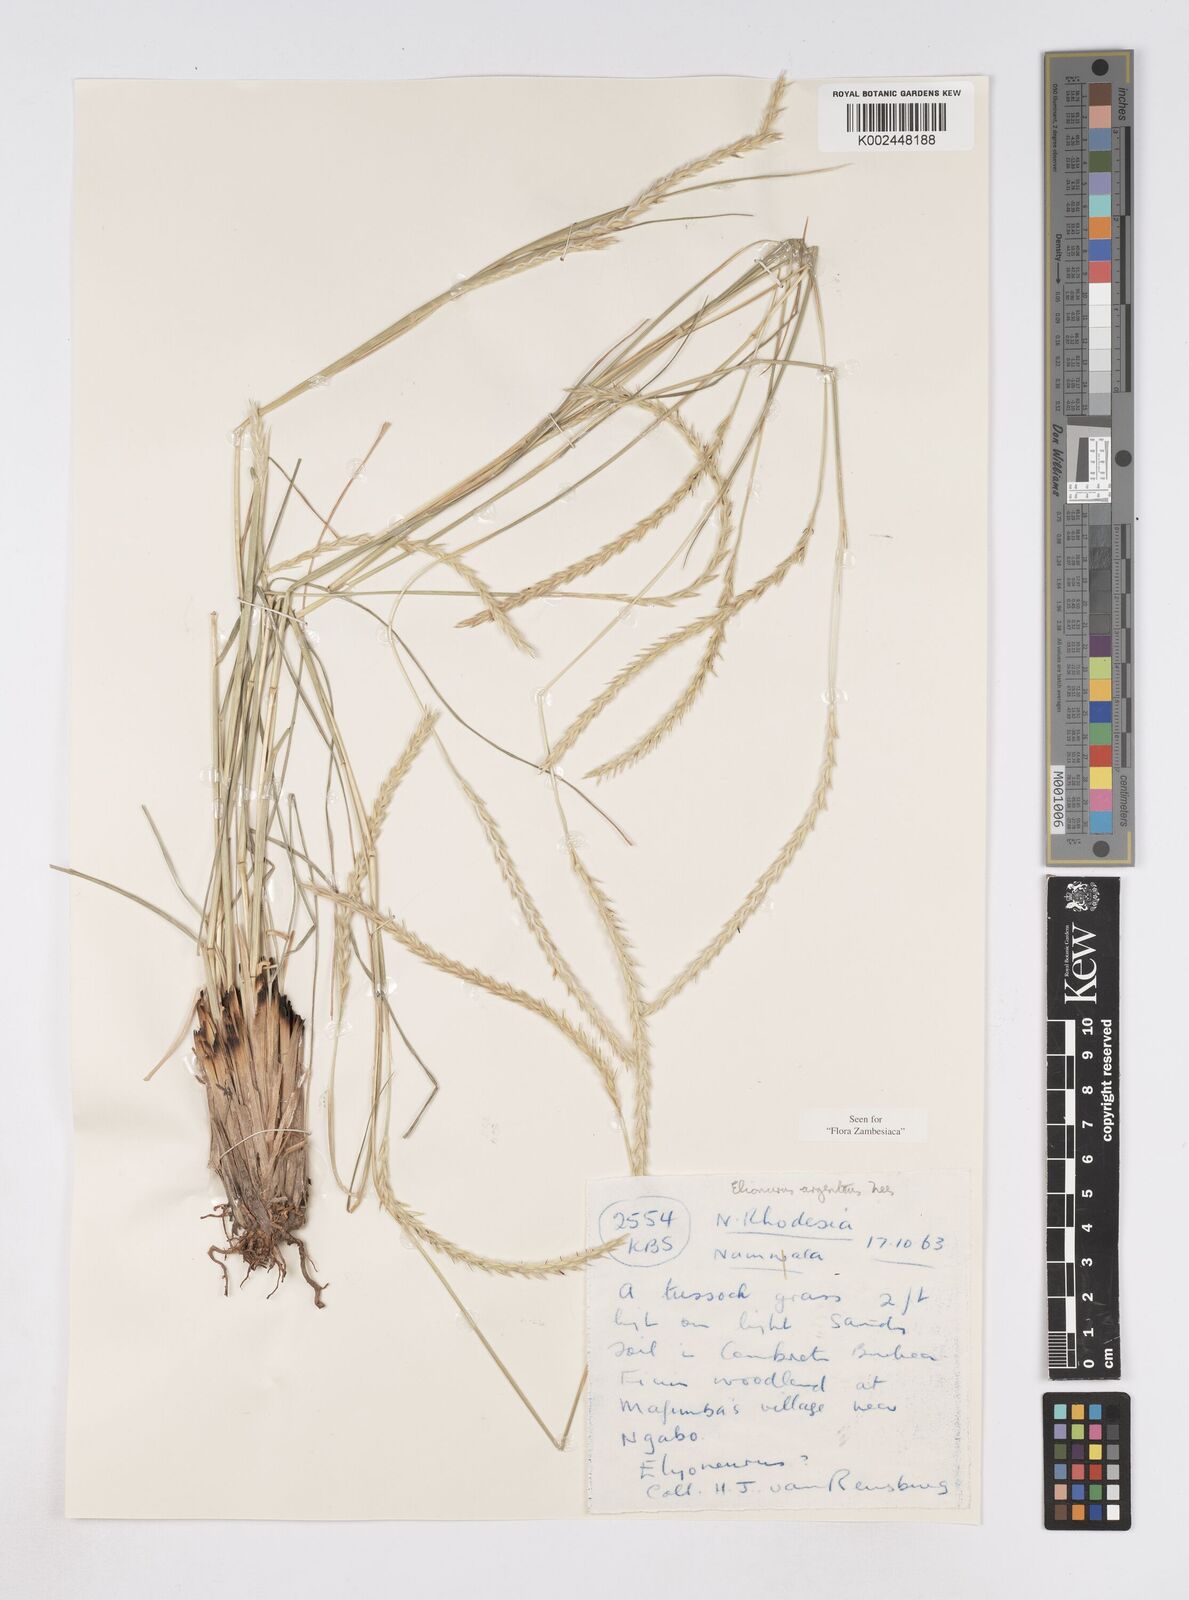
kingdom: Plantae
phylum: Tracheophyta
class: Liliopsida
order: Poales
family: Poaceae
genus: Elionurus
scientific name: Elionurus muticus
